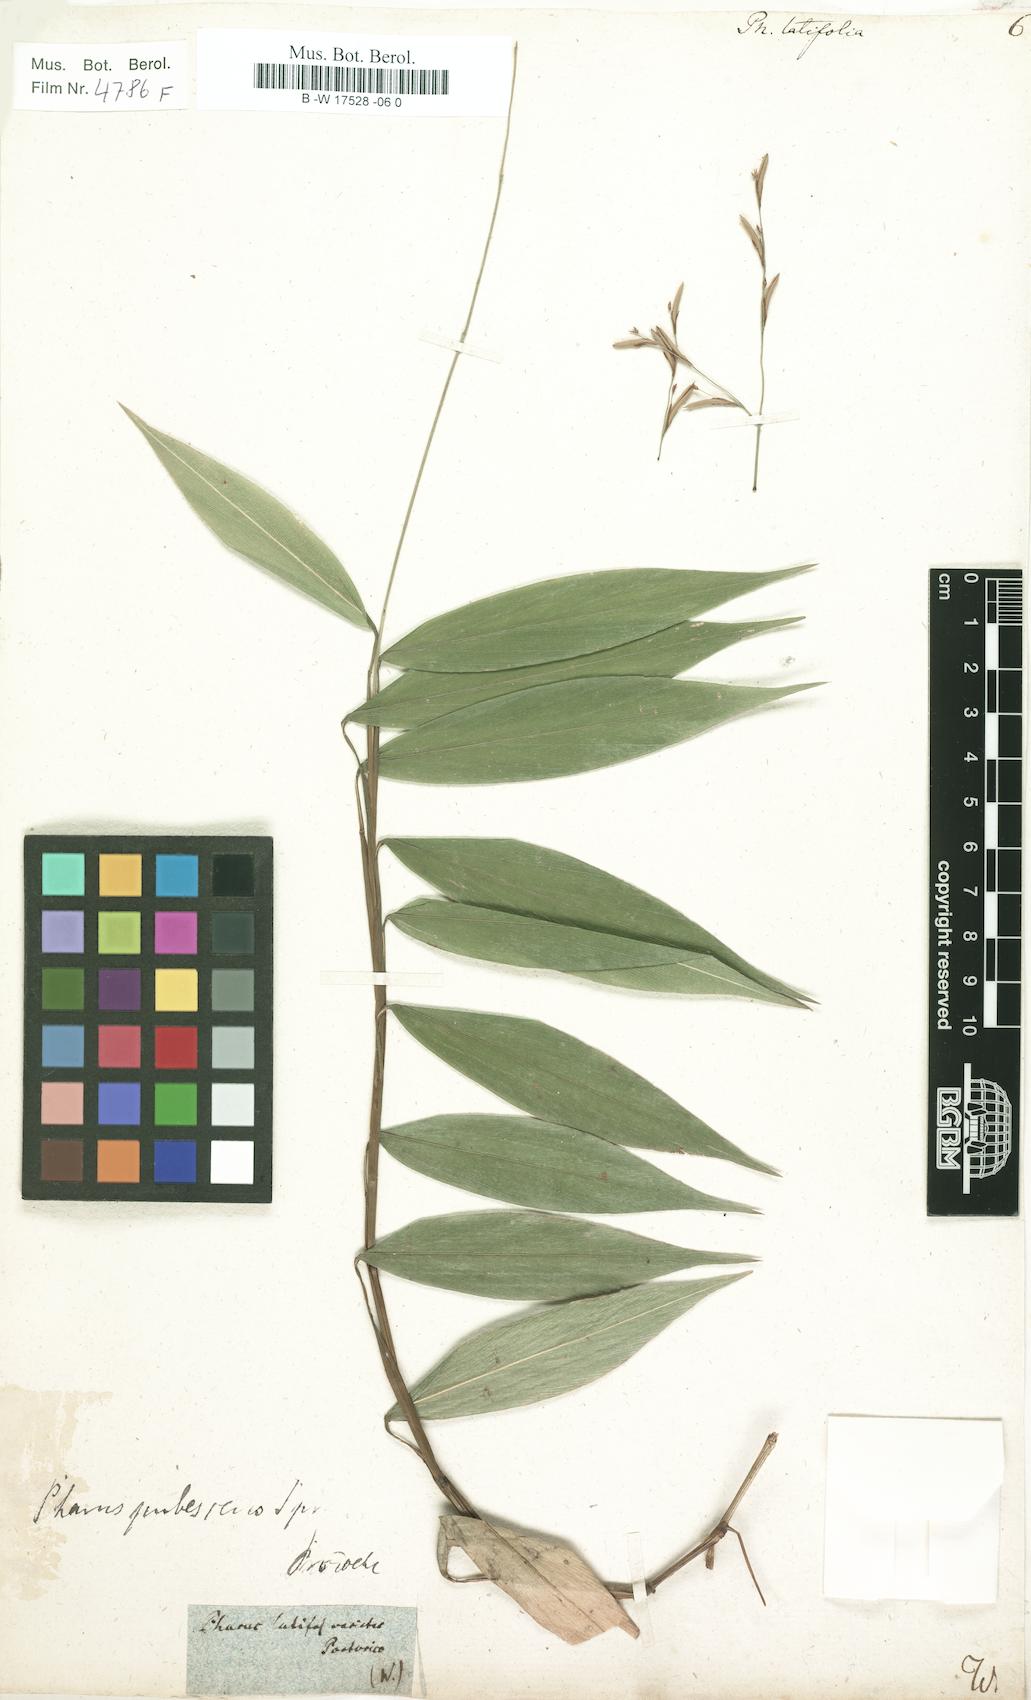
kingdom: Plantae
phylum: Tracheophyta
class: Liliopsida
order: Poales
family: Poaceae
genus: Pharus
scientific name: Pharus latifolius
